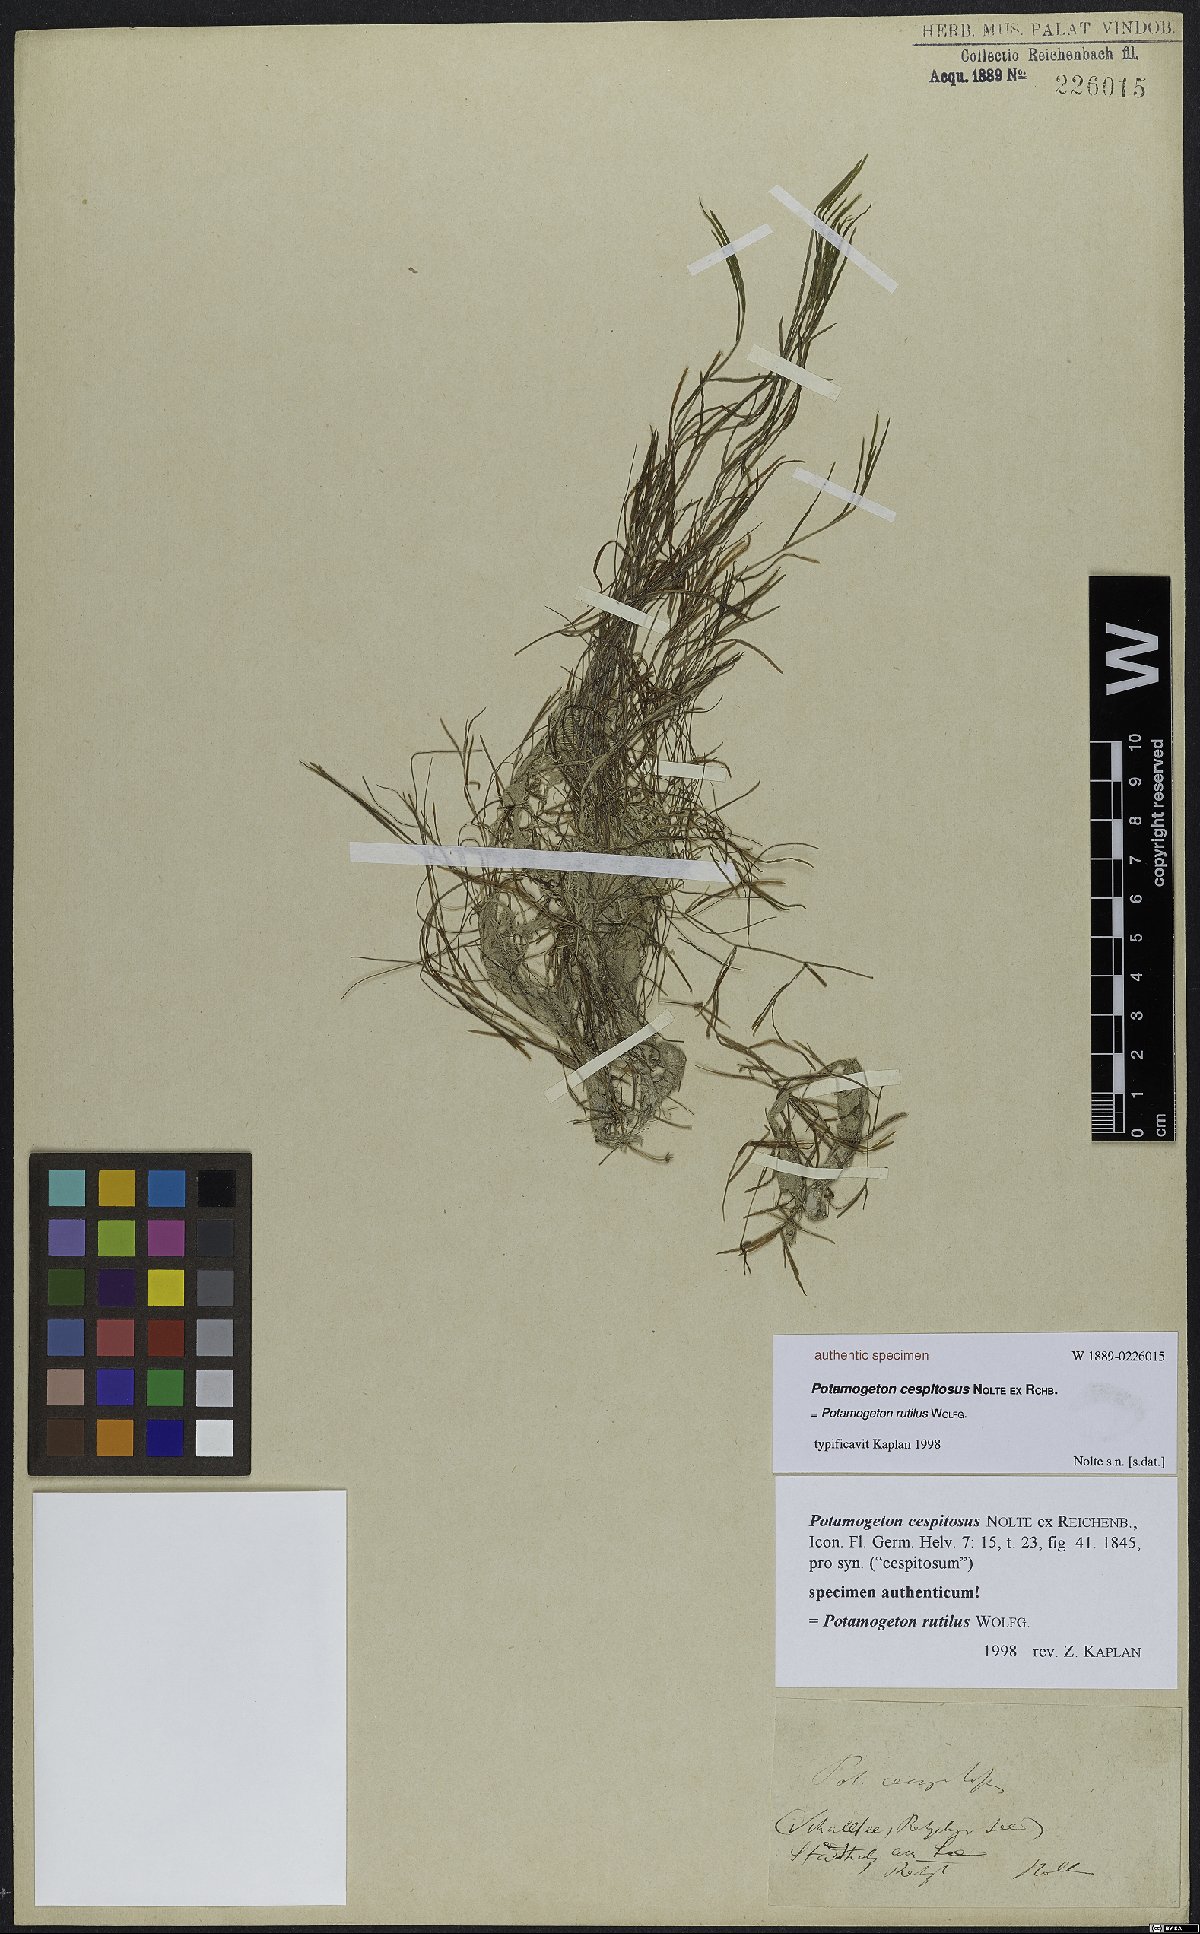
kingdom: Plantae
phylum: Tracheophyta
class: Liliopsida
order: Alismatales
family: Potamogetonaceae
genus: Potamogeton
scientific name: Potamogeton rutilus
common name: Shetland pondweed
